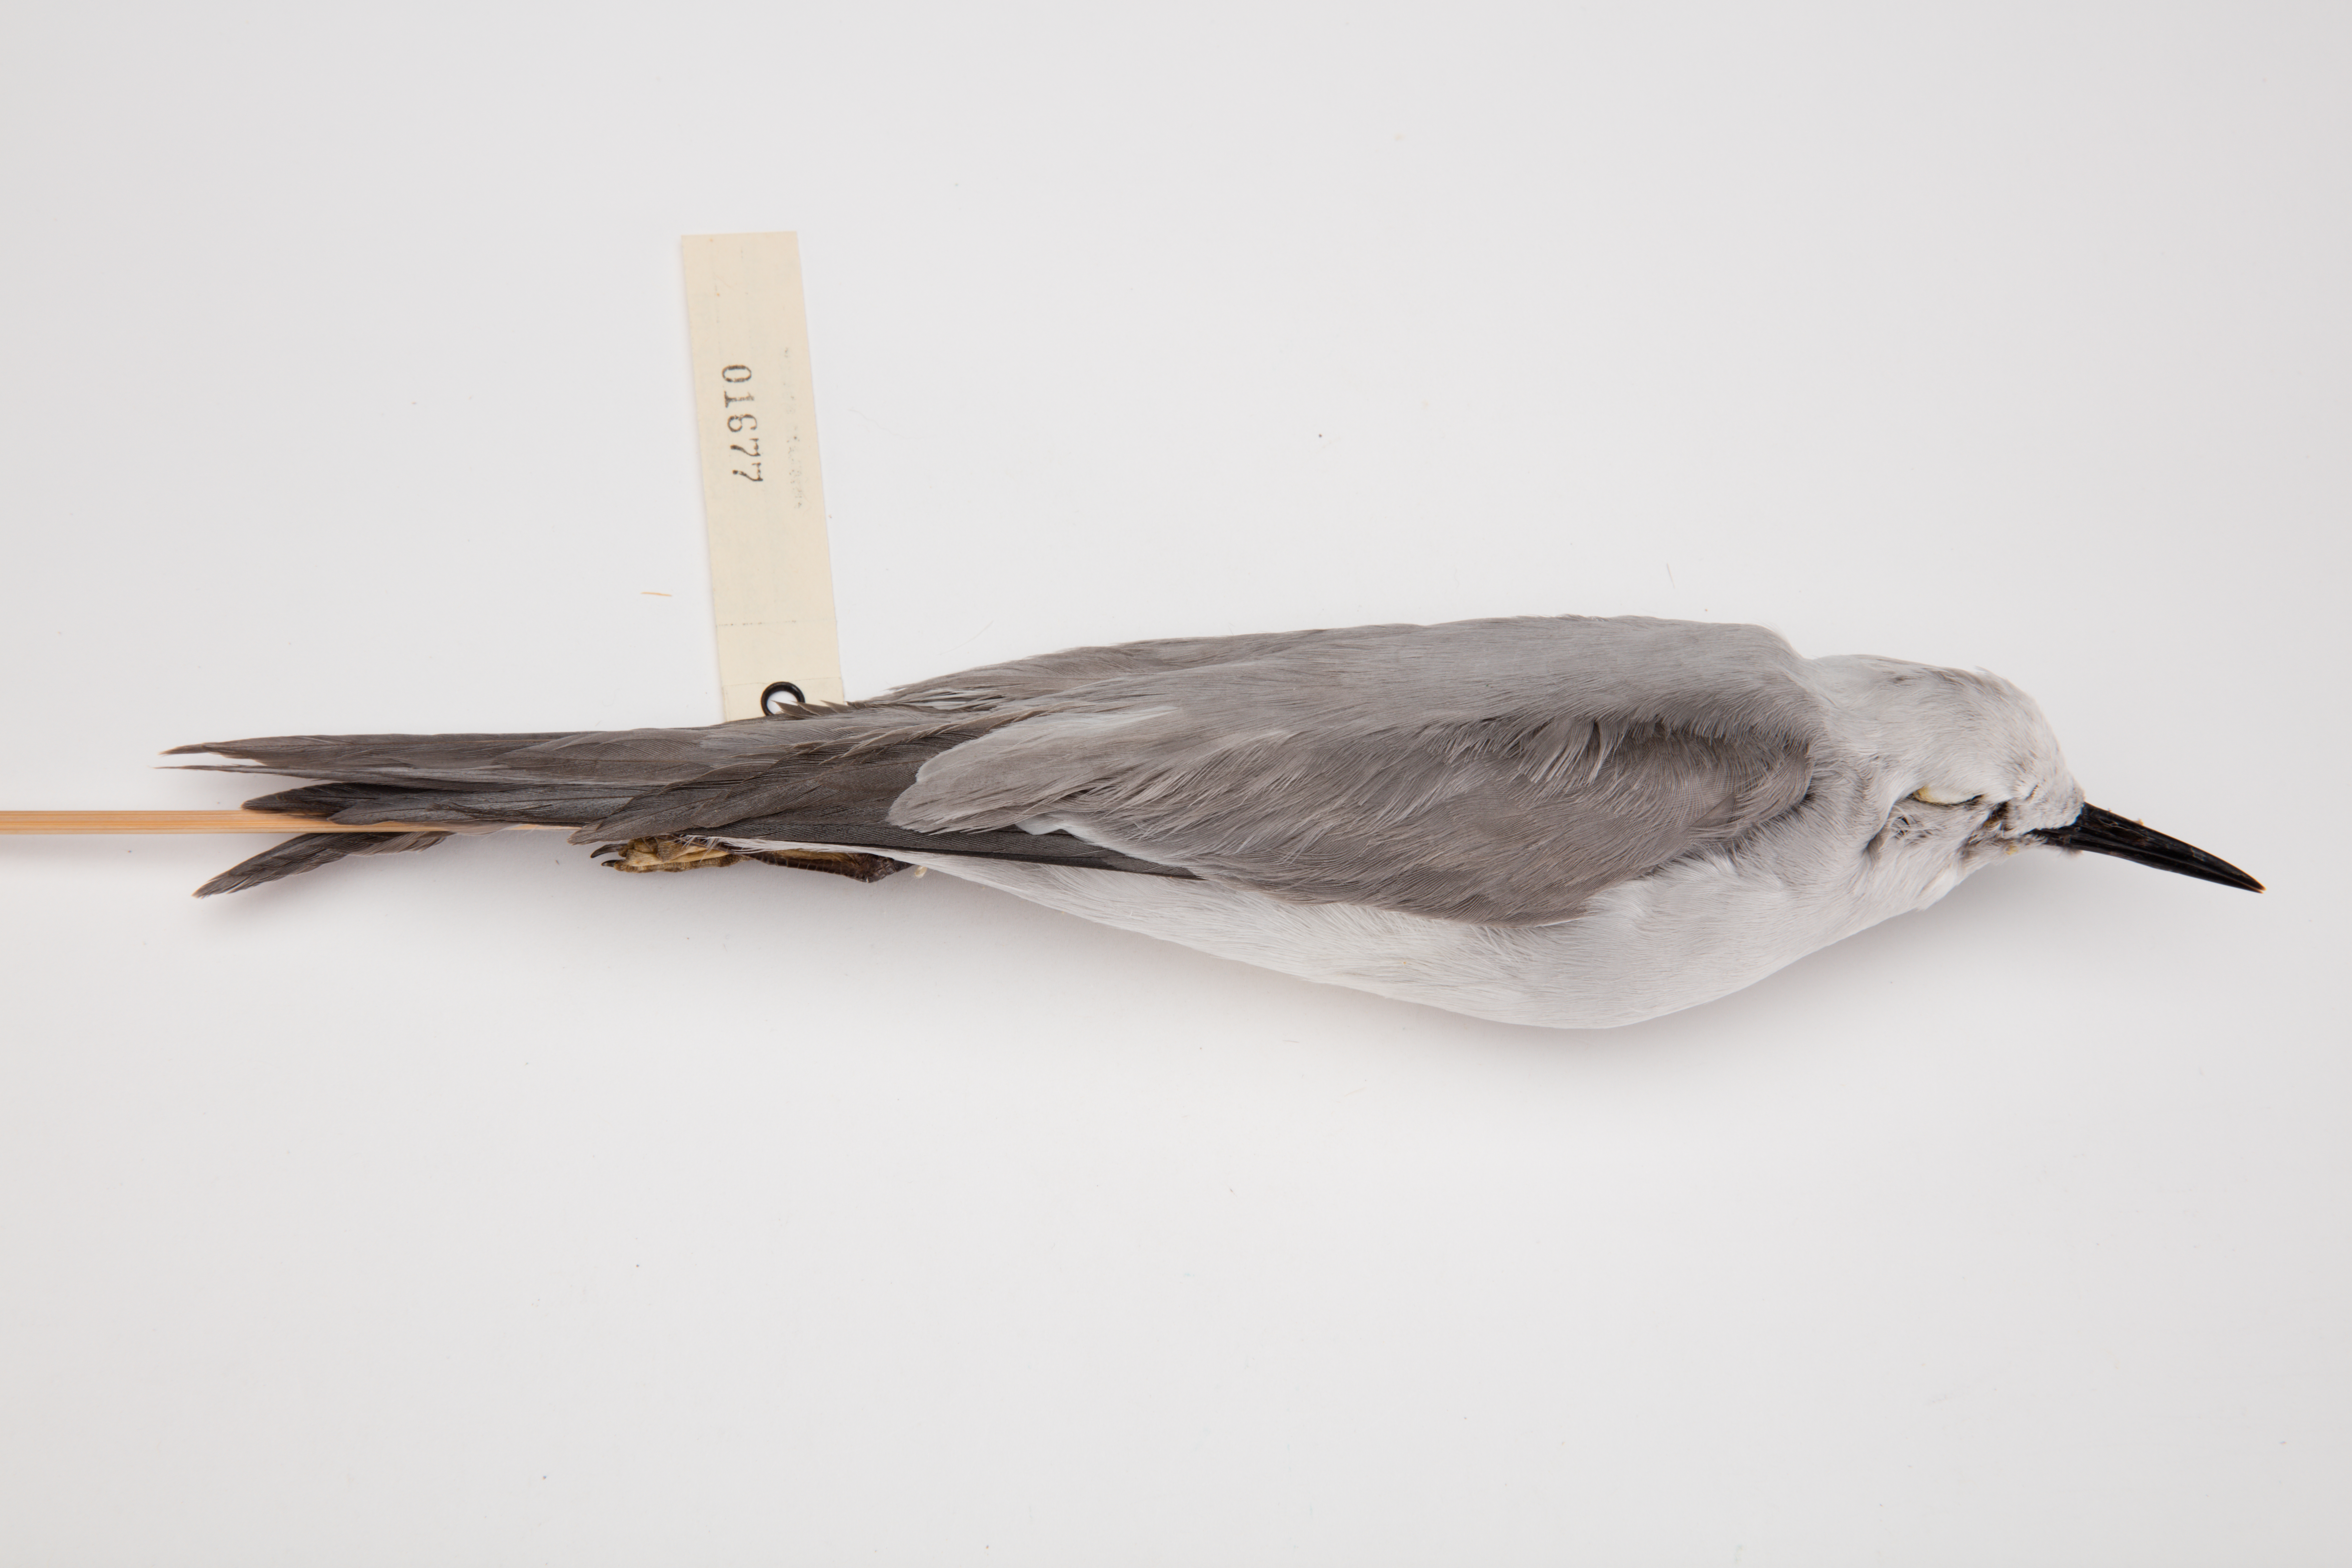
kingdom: Animalia
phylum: Chordata
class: Aves
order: Charadriiformes
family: Laridae
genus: Anous
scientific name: Anous ceruleus
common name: Blue-gray noddy
